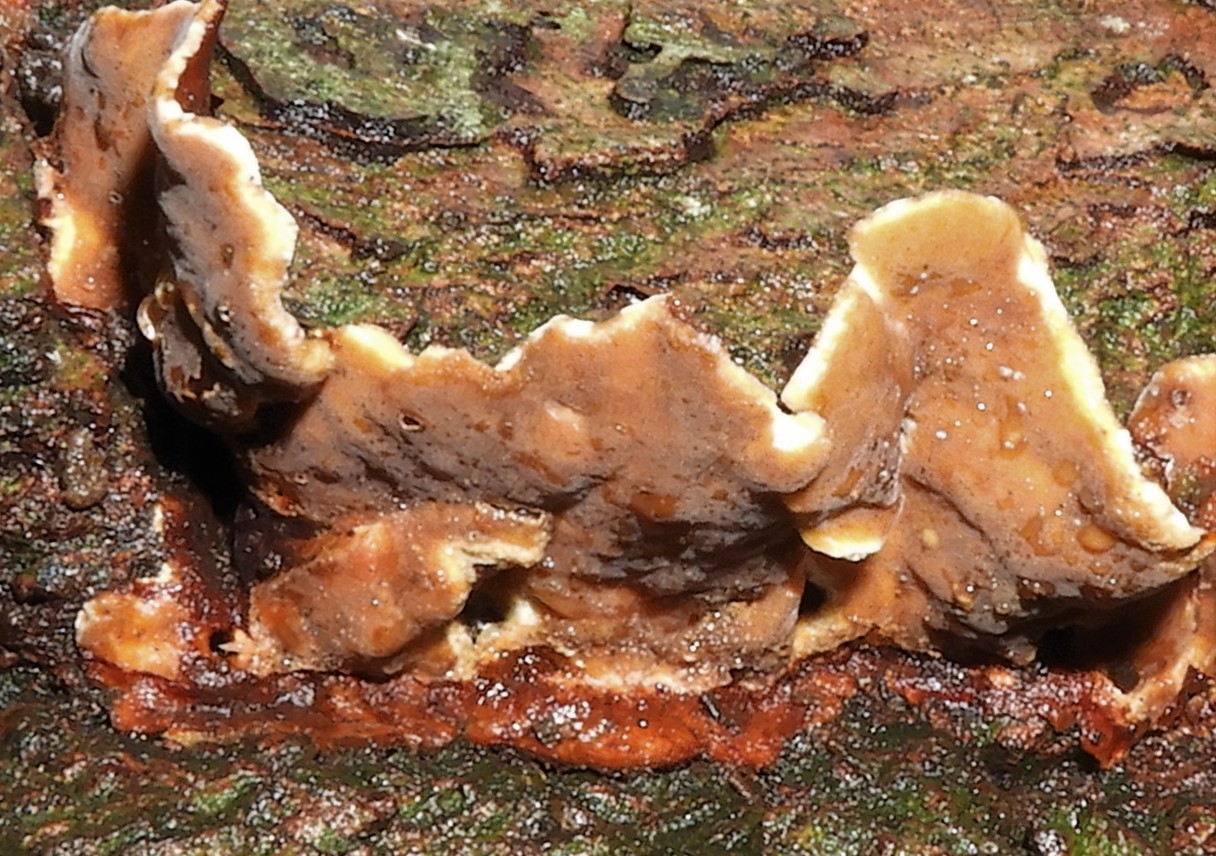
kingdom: Fungi
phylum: Basidiomycota
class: Agaricomycetes
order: Russulales
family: Stereaceae
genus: Stereum
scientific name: Stereum subtomentosum
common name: smuk lædersvamp
